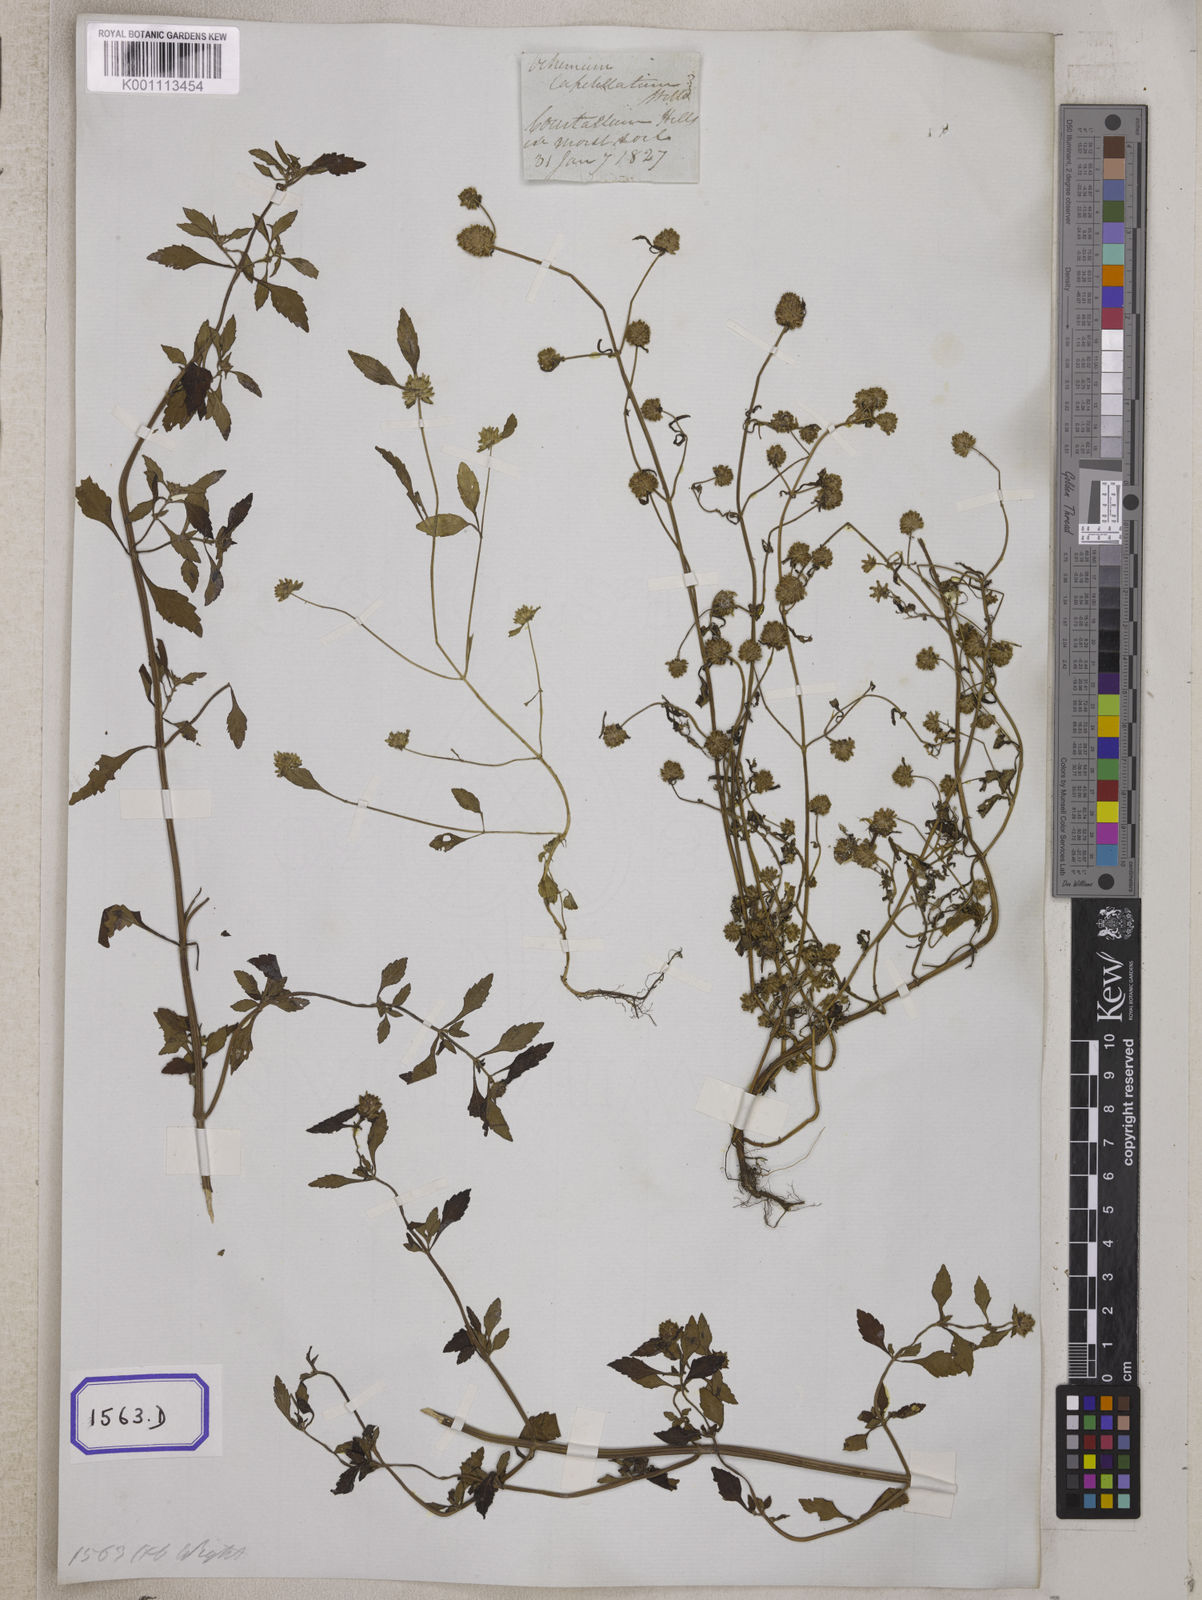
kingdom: Plantae
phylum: Tracheophyta
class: Magnoliopsida
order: Lamiales
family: Lamiaceae
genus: Platostoma
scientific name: Platostoma hispidum
